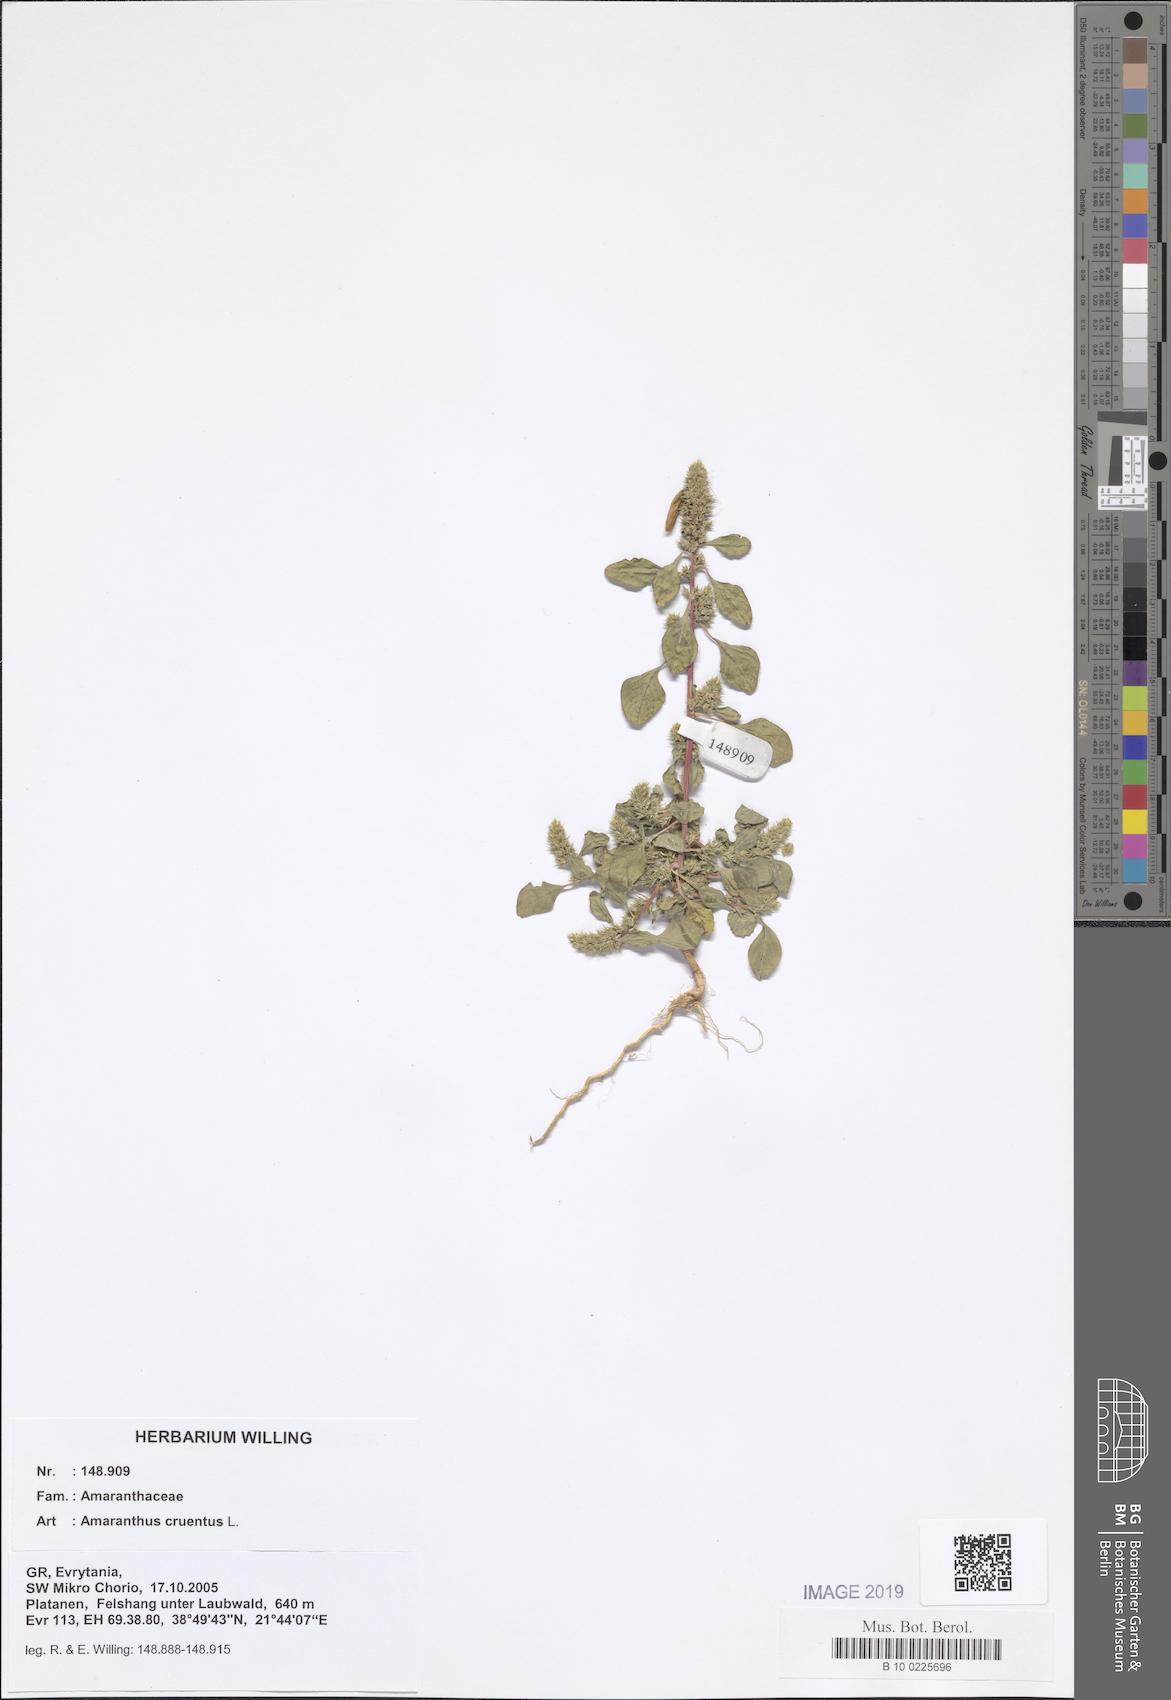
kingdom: Plantae
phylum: Tracheophyta
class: Magnoliopsida
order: Caryophyllales
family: Amaranthaceae
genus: Amaranthus
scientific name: Amaranthus cruentus
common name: Purple amaranth
